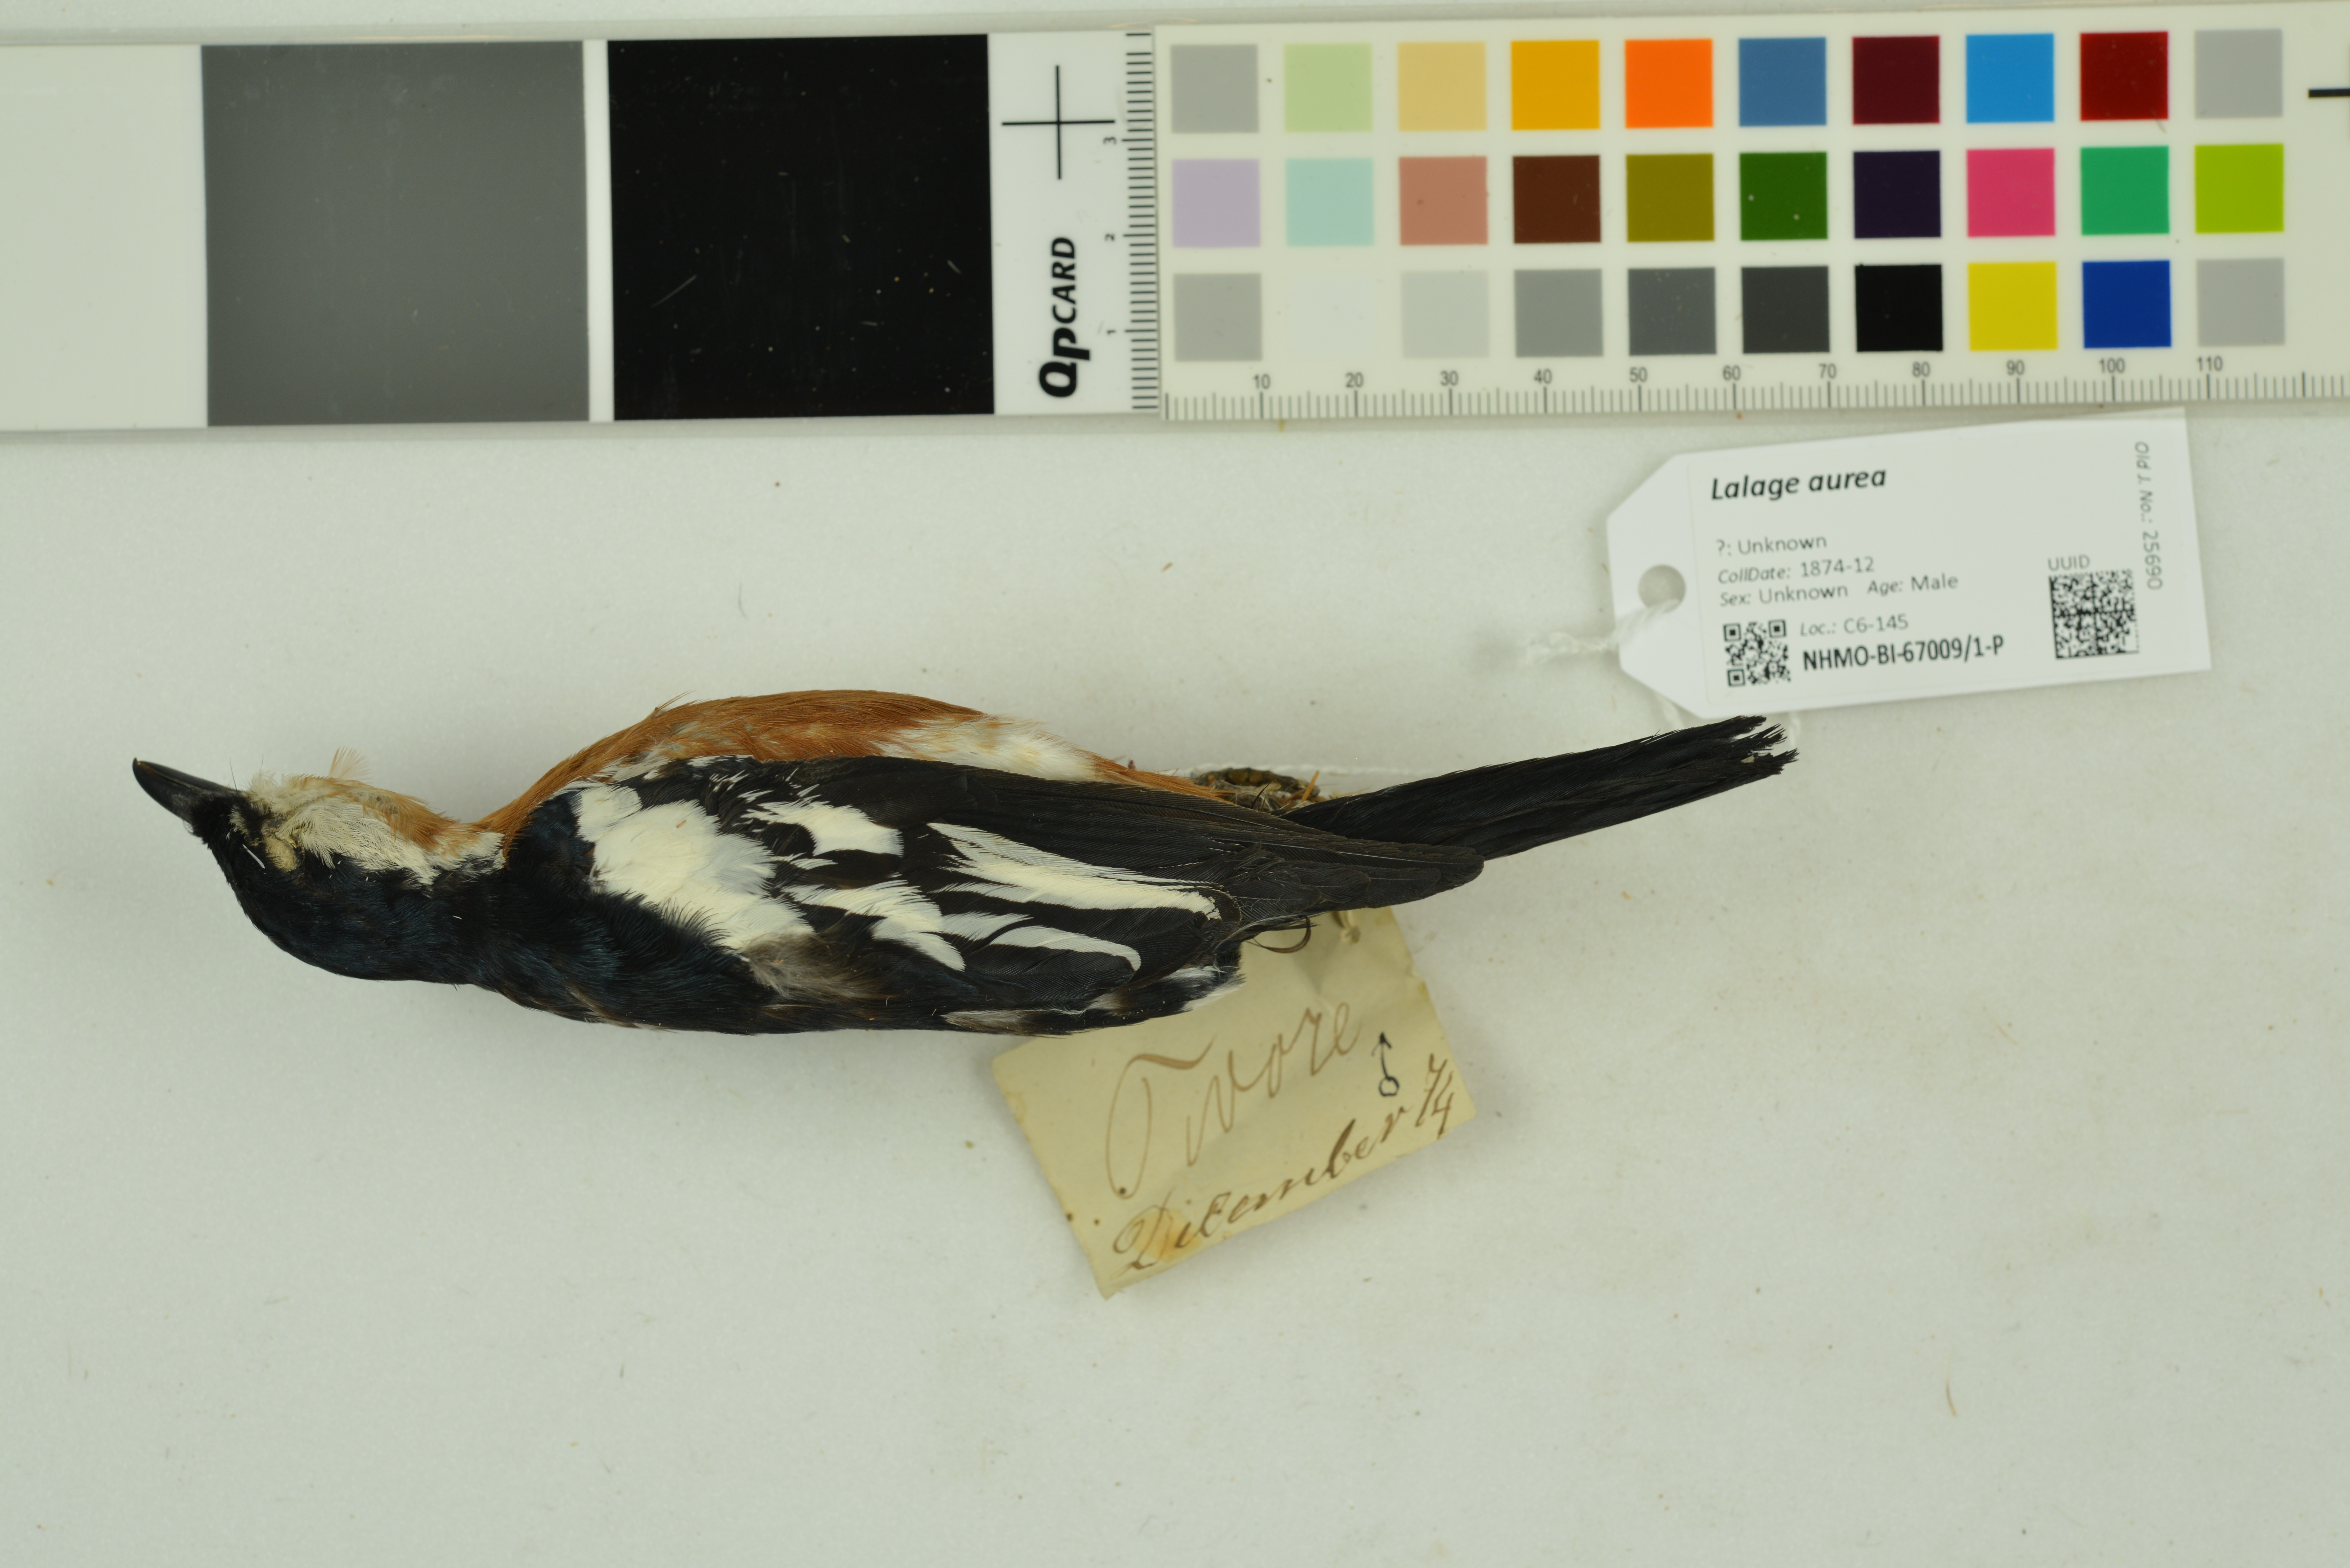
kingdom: Animalia
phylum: Chordata
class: Aves
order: Passeriformes
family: Campephagidae
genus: Lalage
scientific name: Lalage aurea
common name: Rufous-bellied triller
